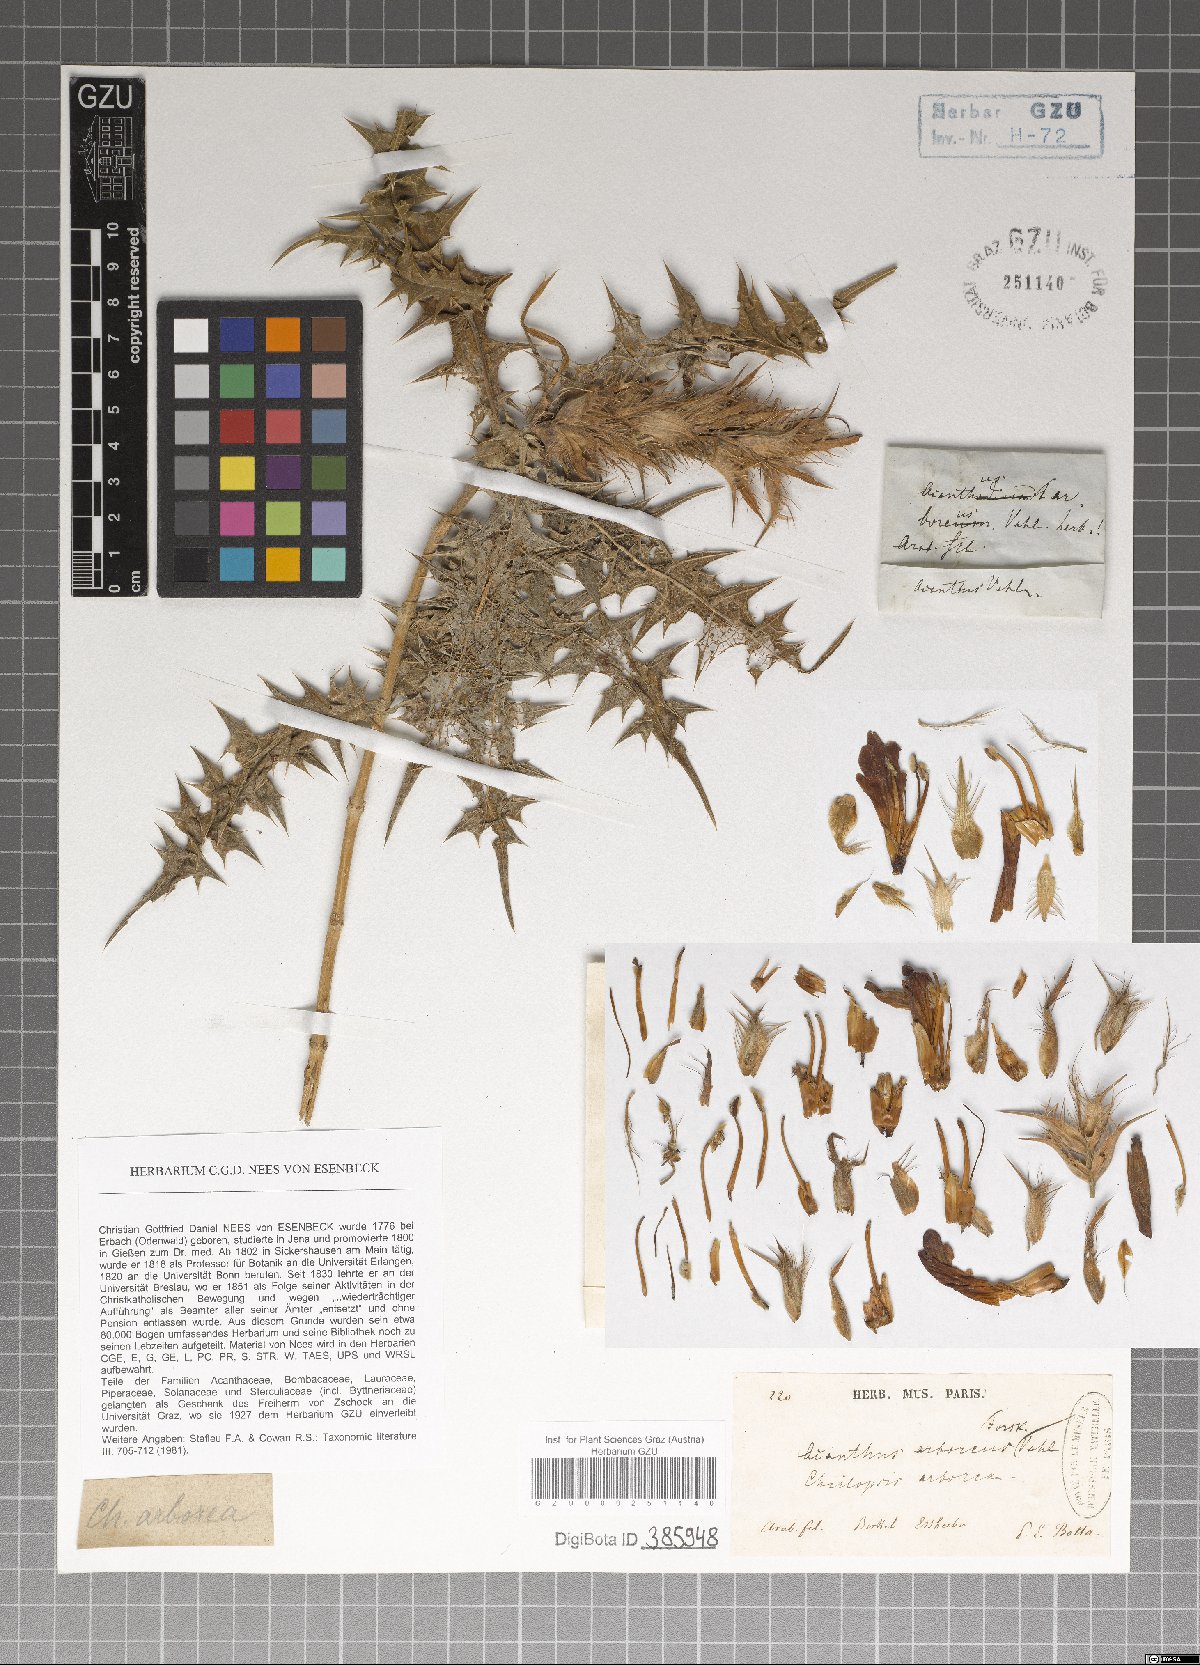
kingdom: Plantae
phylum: Tracheophyta
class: Magnoliopsida
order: Lamiales
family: Acanthaceae
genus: Acanthus
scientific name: Acanthus arboreus
